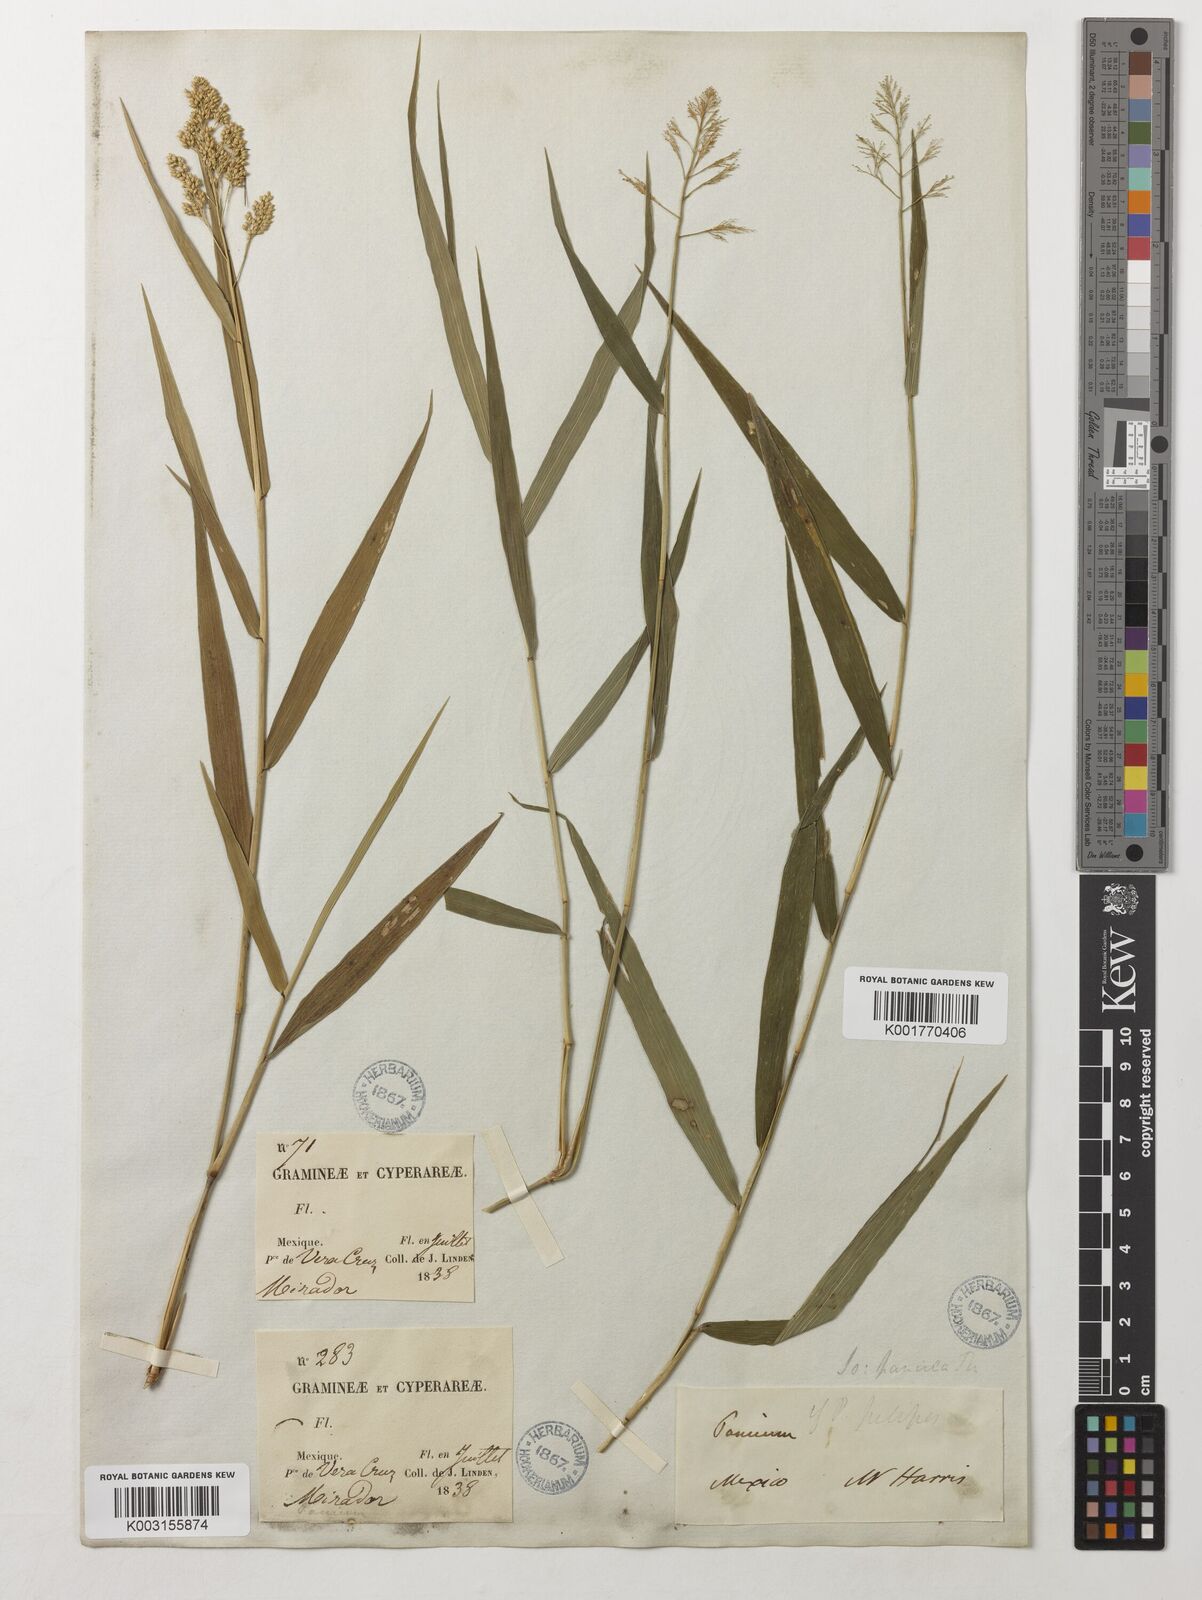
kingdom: Plantae
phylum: Tracheophyta
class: Liliopsida
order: Poales
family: Poaceae
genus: Isachne
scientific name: Isachne arundinacea
